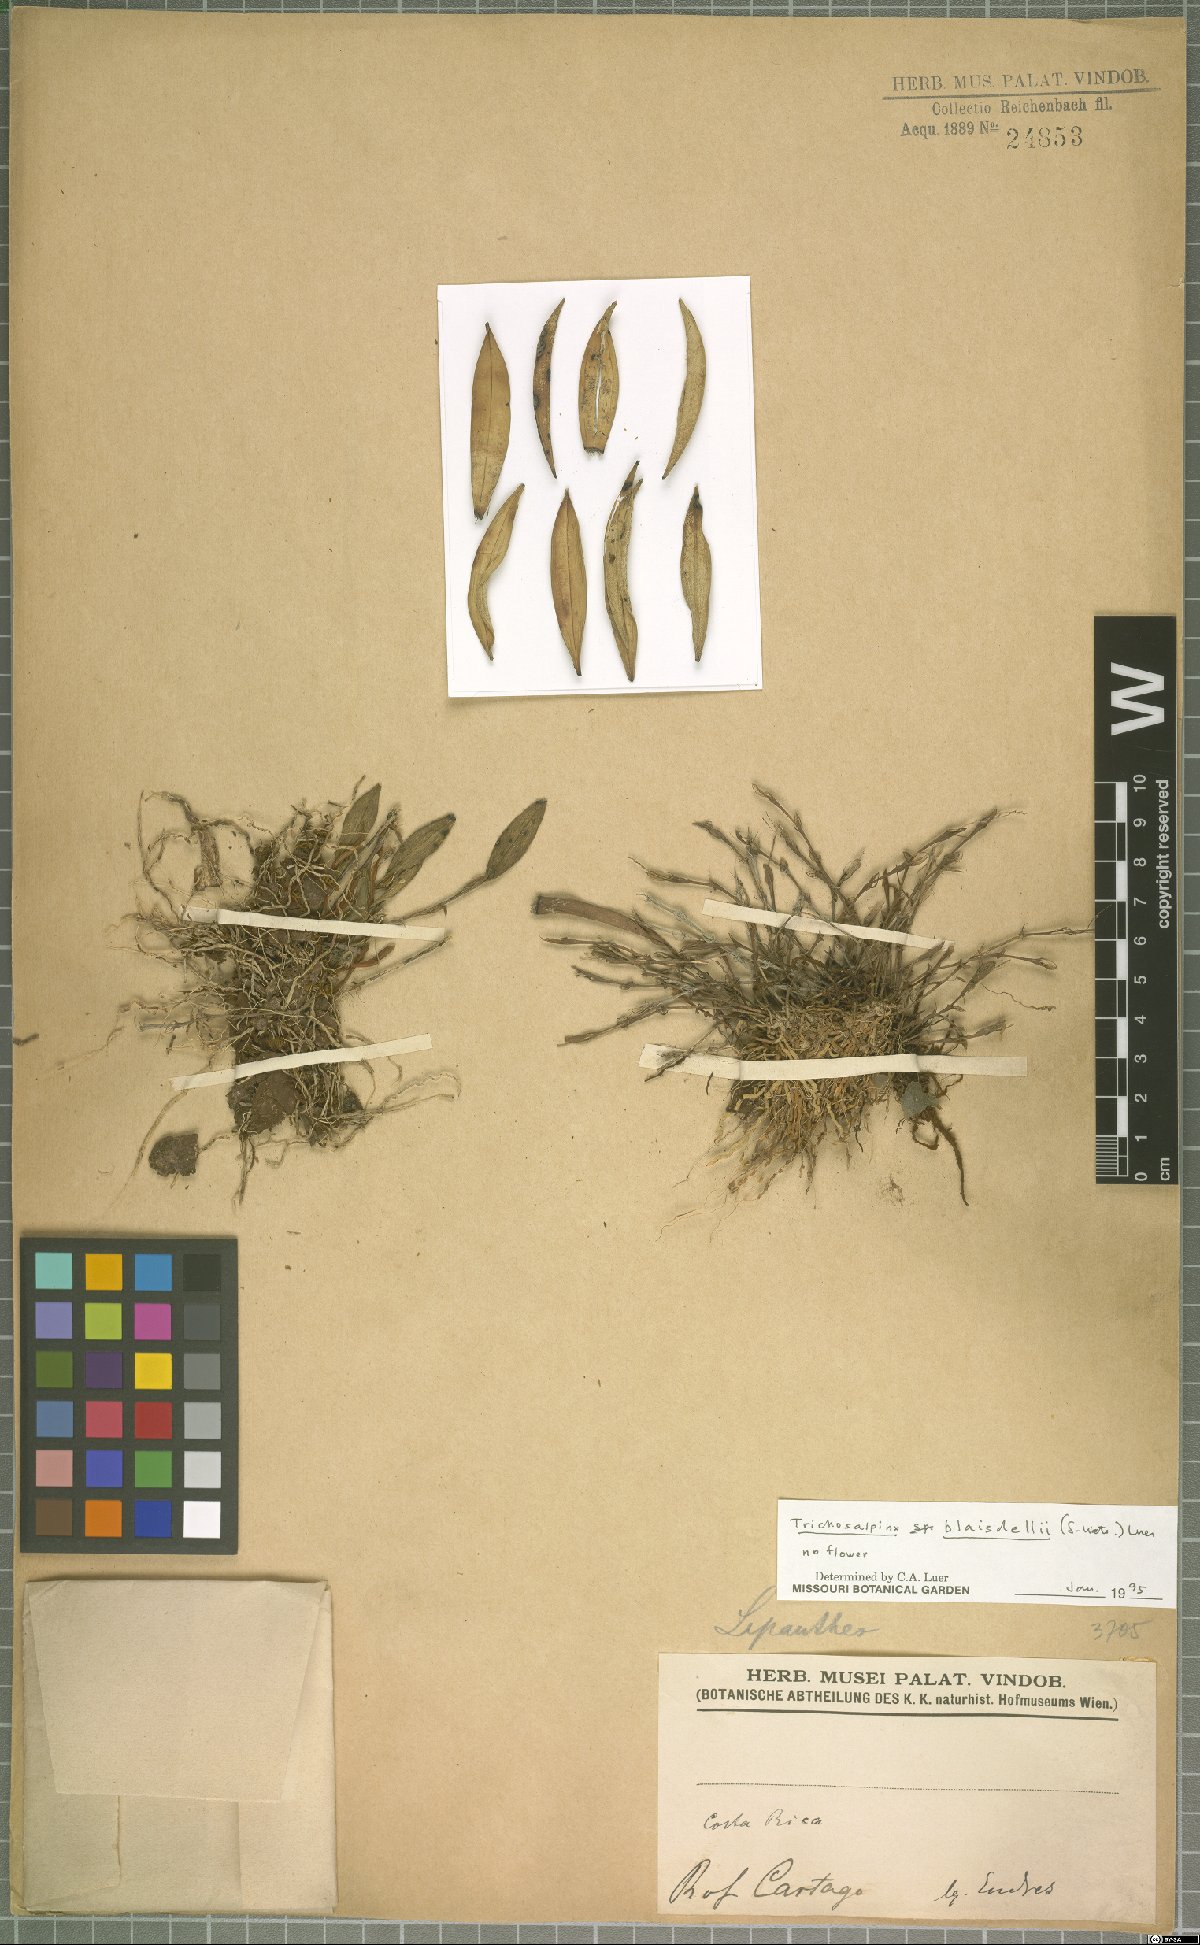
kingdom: Plantae
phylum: Tracheophyta
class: Liliopsida
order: Asparagales
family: Orchidaceae
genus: Trichosalpinx
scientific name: Trichosalpinx blaisdellii
